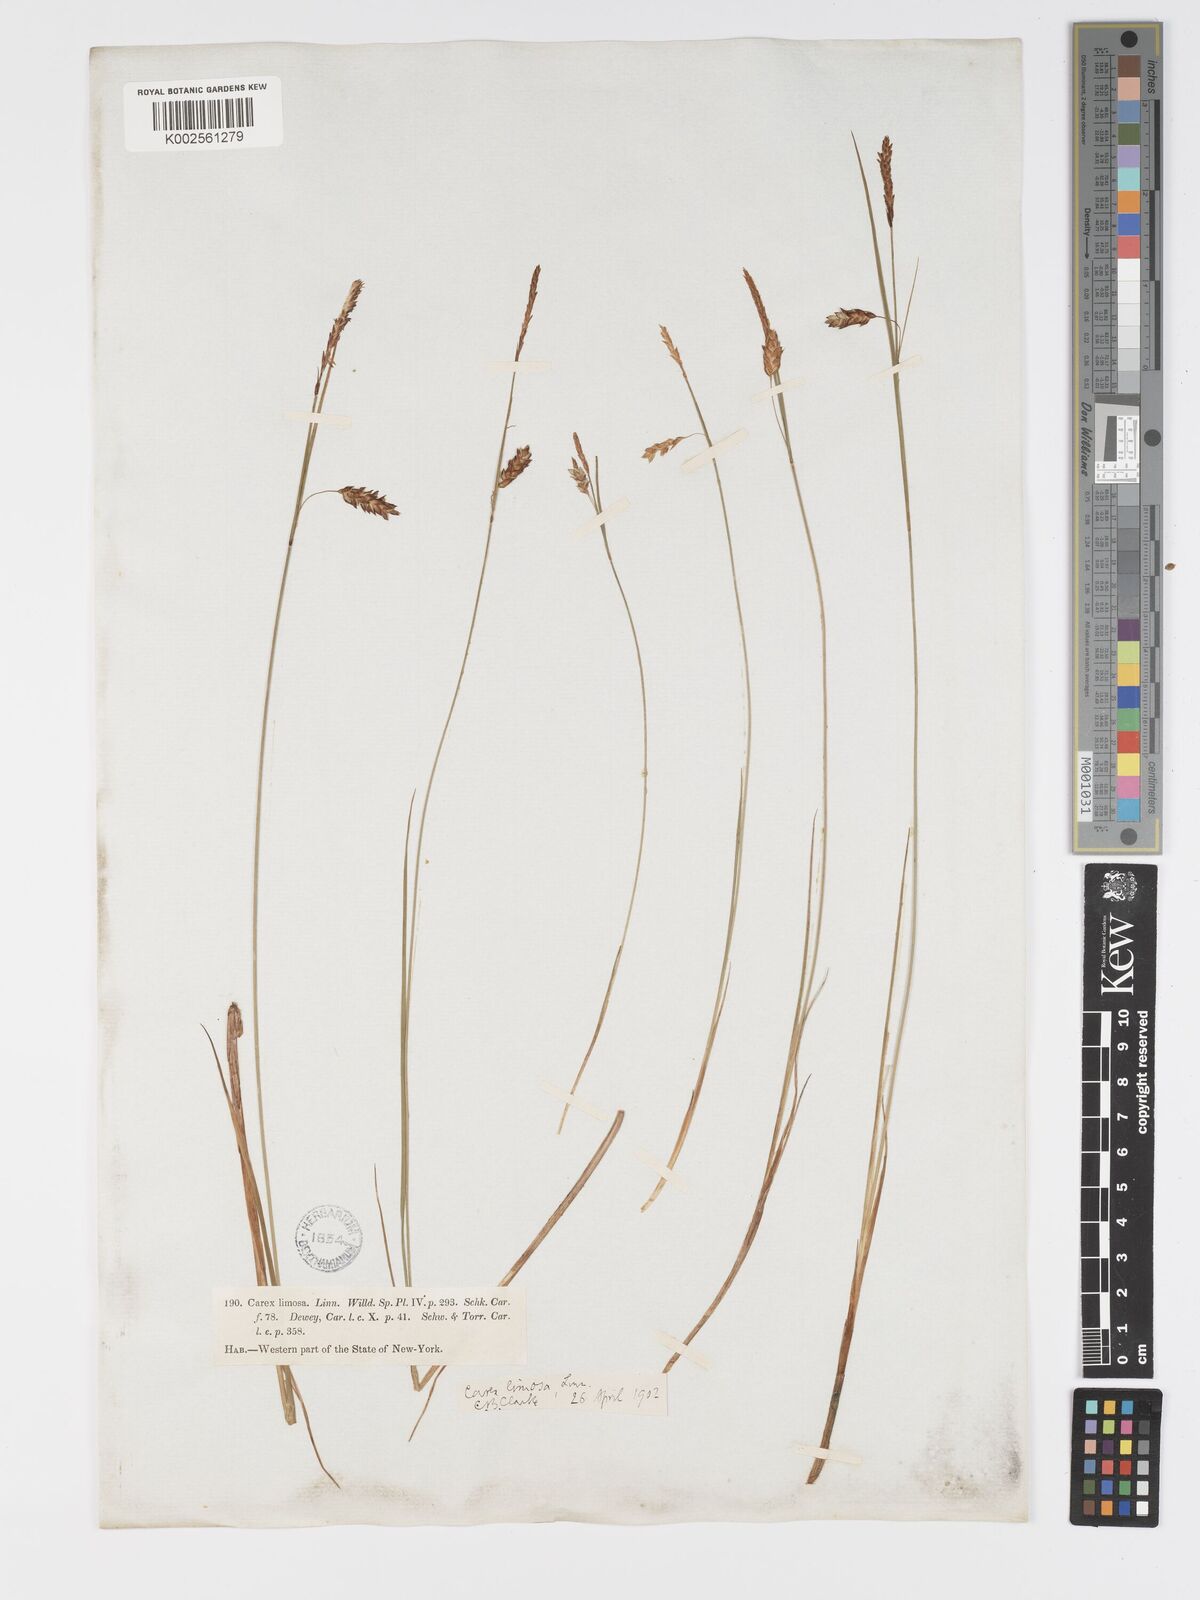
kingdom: Plantae
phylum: Tracheophyta
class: Liliopsida
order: Poales
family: Cyperaceae
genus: Carex
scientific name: Carex limosa
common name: Bog sedge
